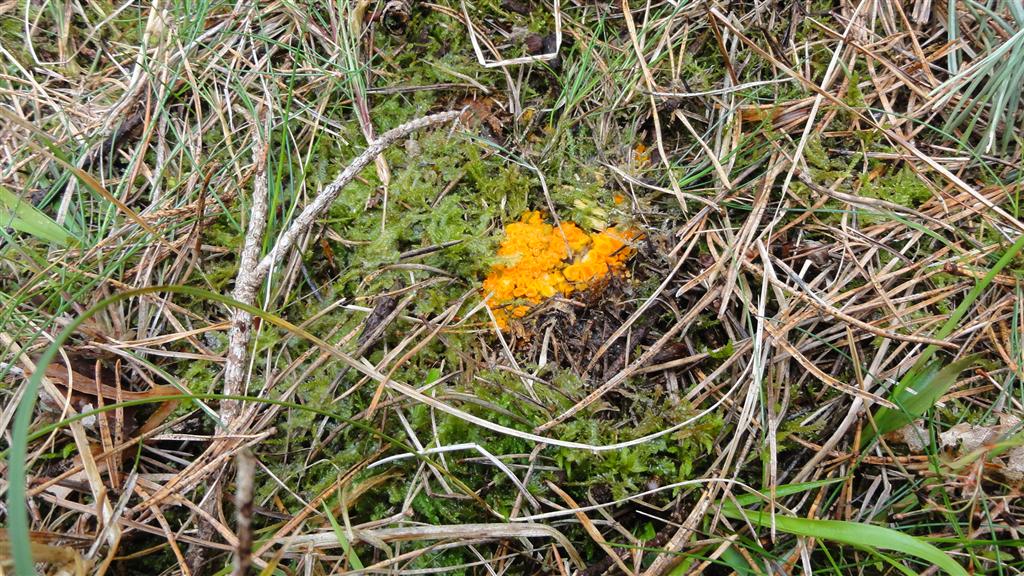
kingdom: Fungi
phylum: Ascomycota
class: Pezizomycetes
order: Pezizales
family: Pyronemataceae
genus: Byssonectria
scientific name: Byssonectria terrestris
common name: hjortebæger
